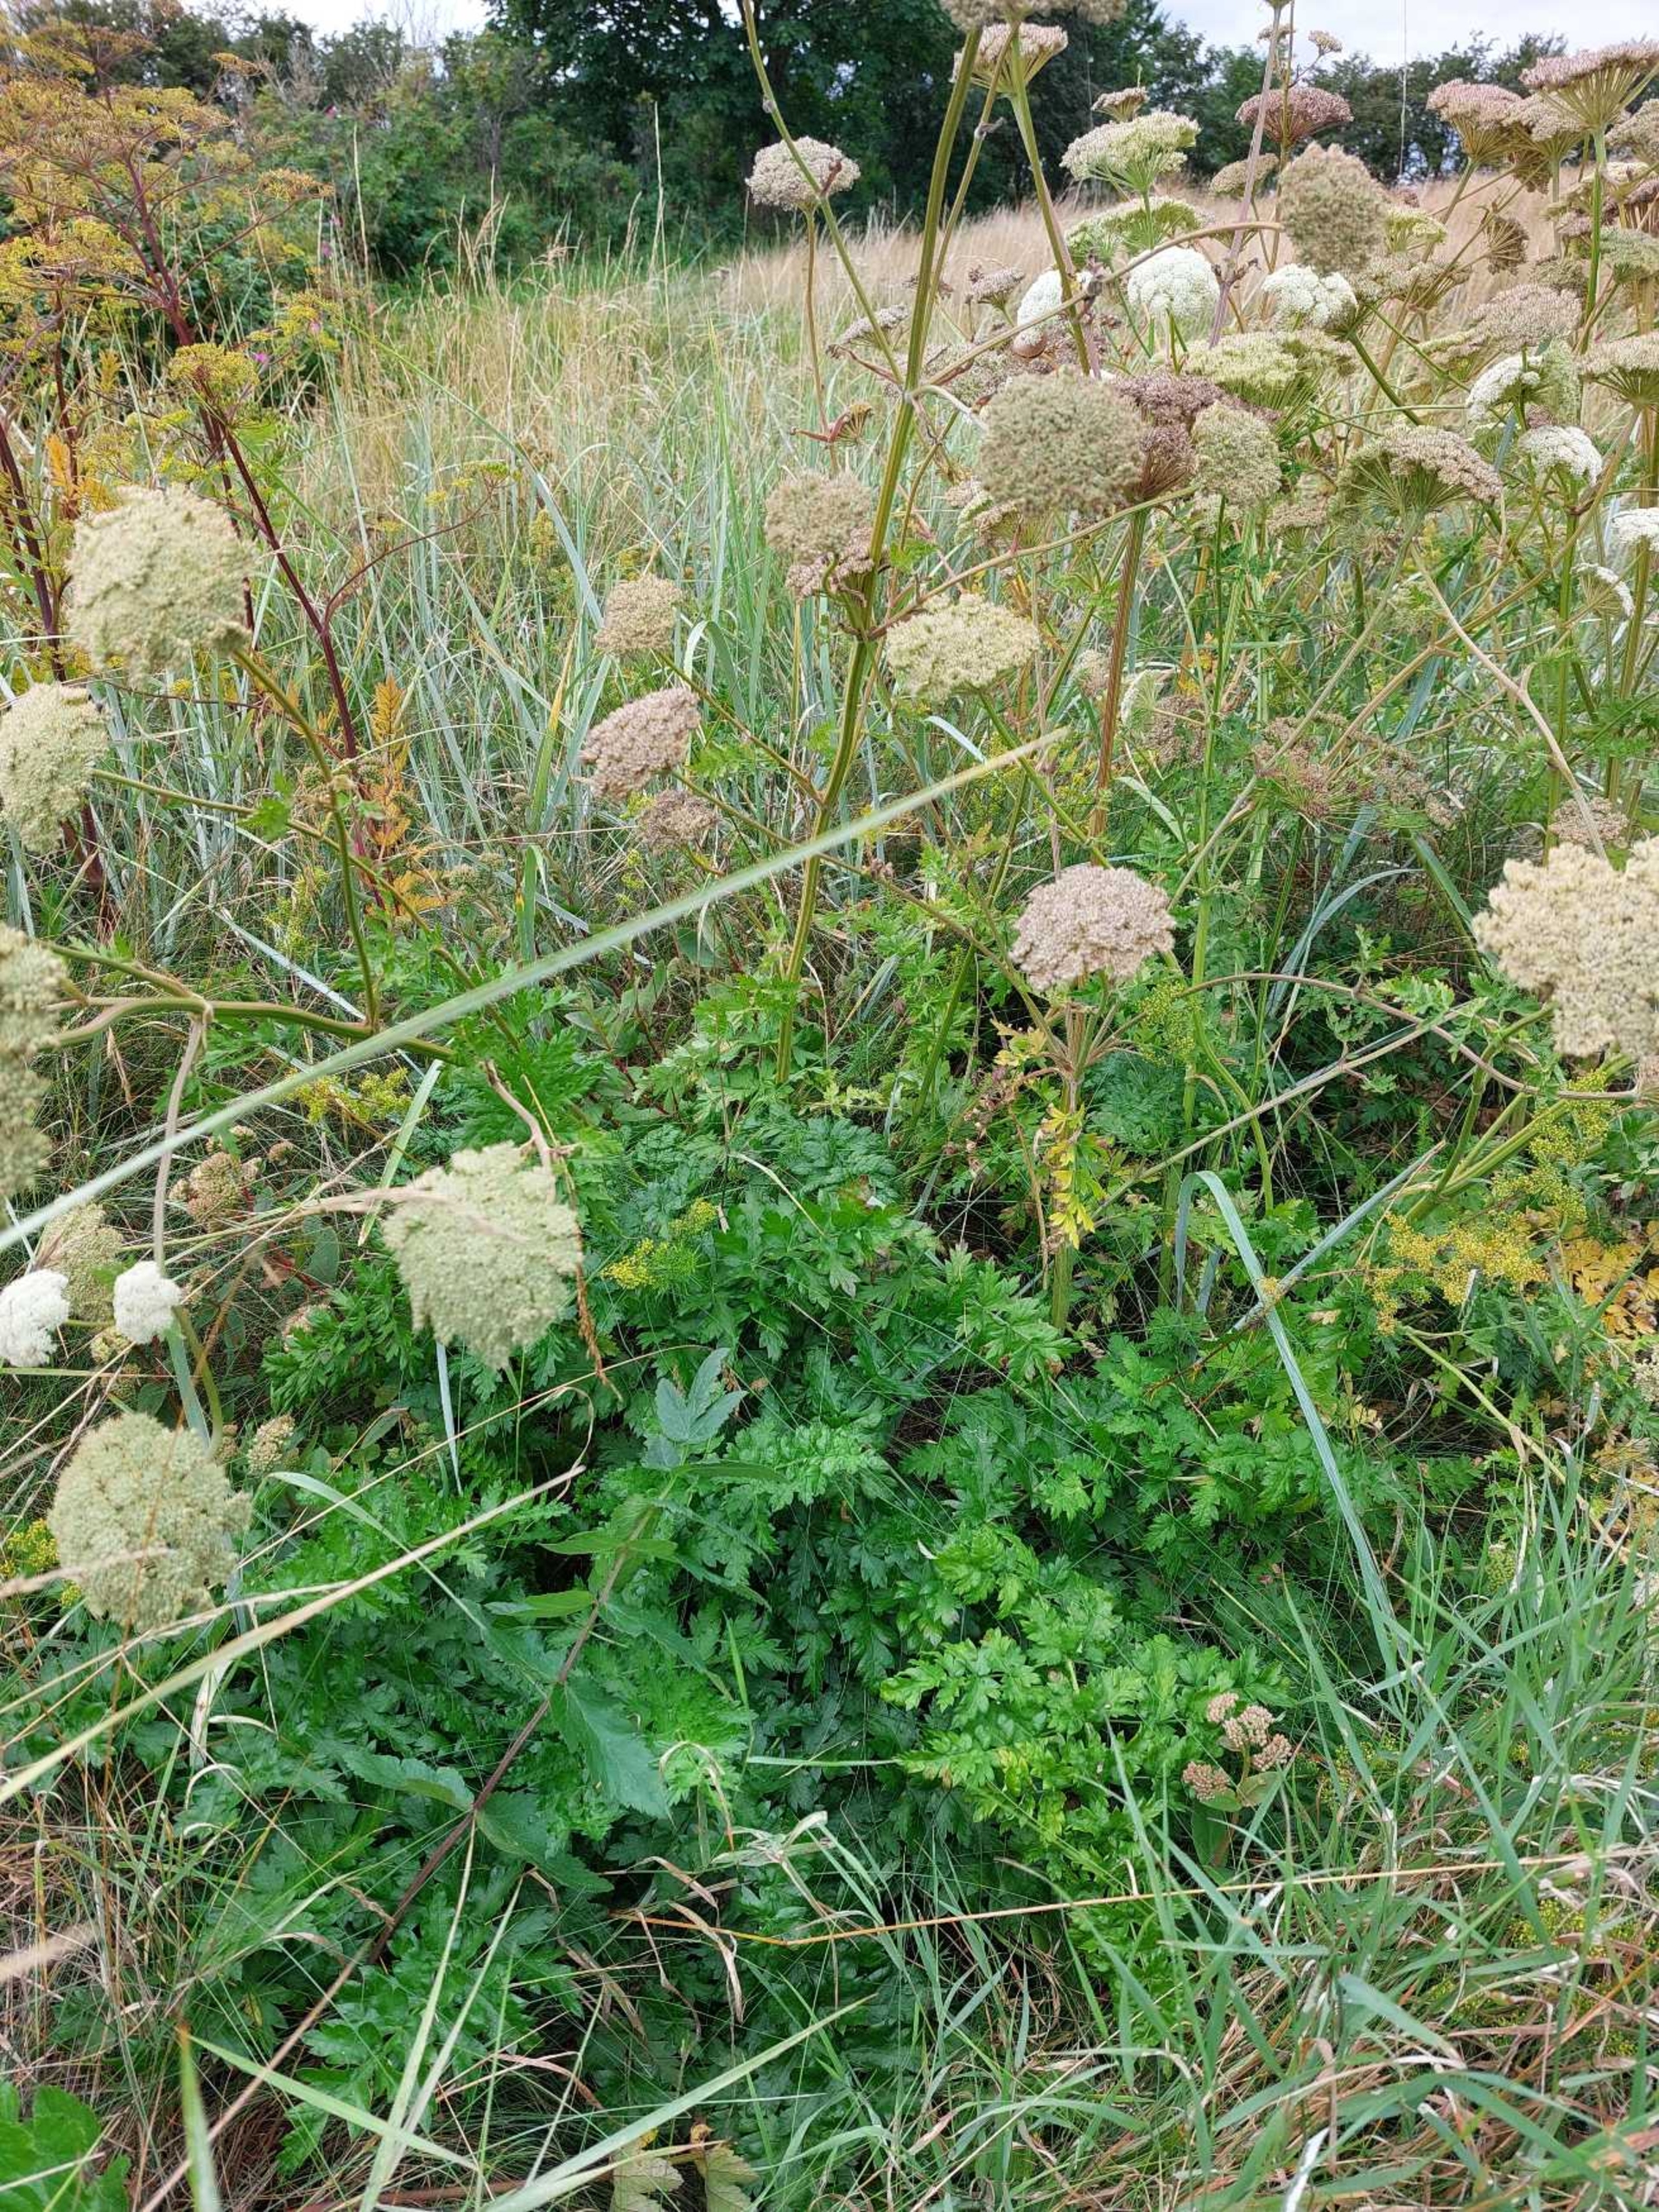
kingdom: Plantae
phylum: Tracheophyta
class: Magnoliopsida
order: Apiales
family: Apiaceae
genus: Seseli
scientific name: Seseli libanotis
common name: Hjorterod
